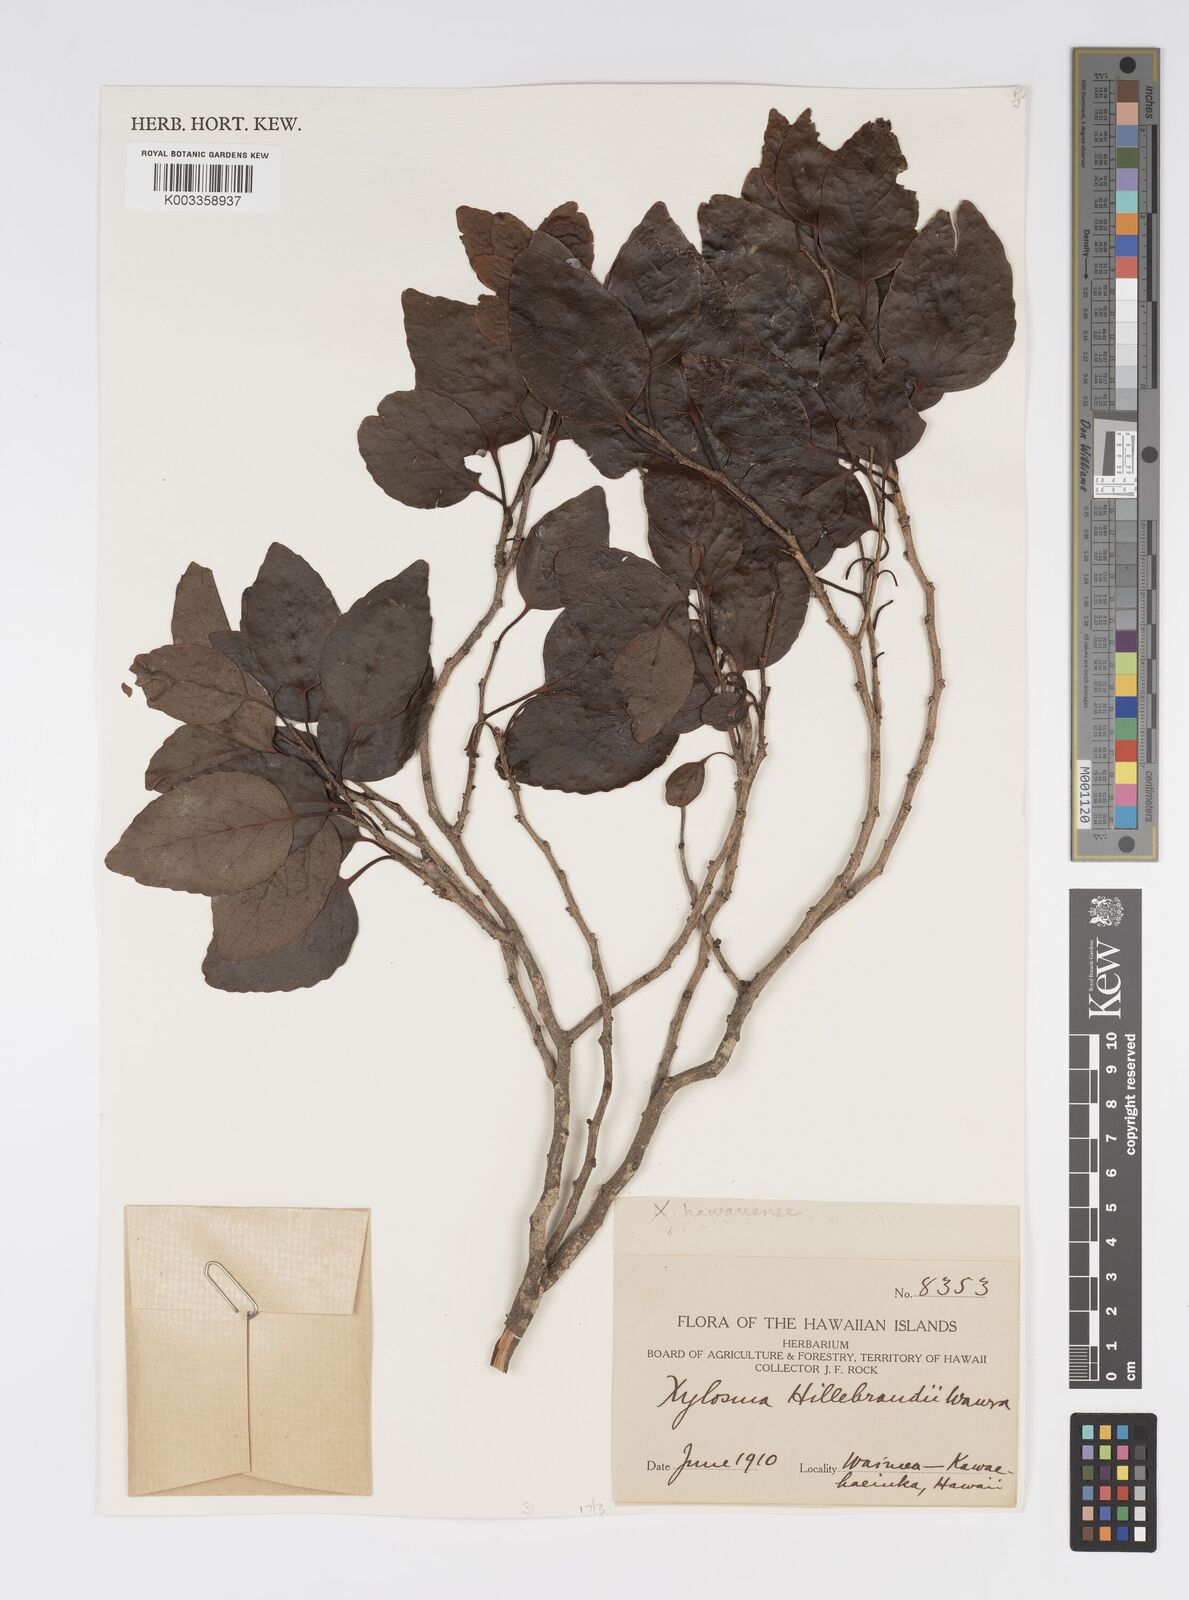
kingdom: Plantae
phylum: Tracheophyta
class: Magnoliopsida
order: Malpighiales
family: Salicaceae
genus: Xylosma
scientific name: Xylosma hawaiense
